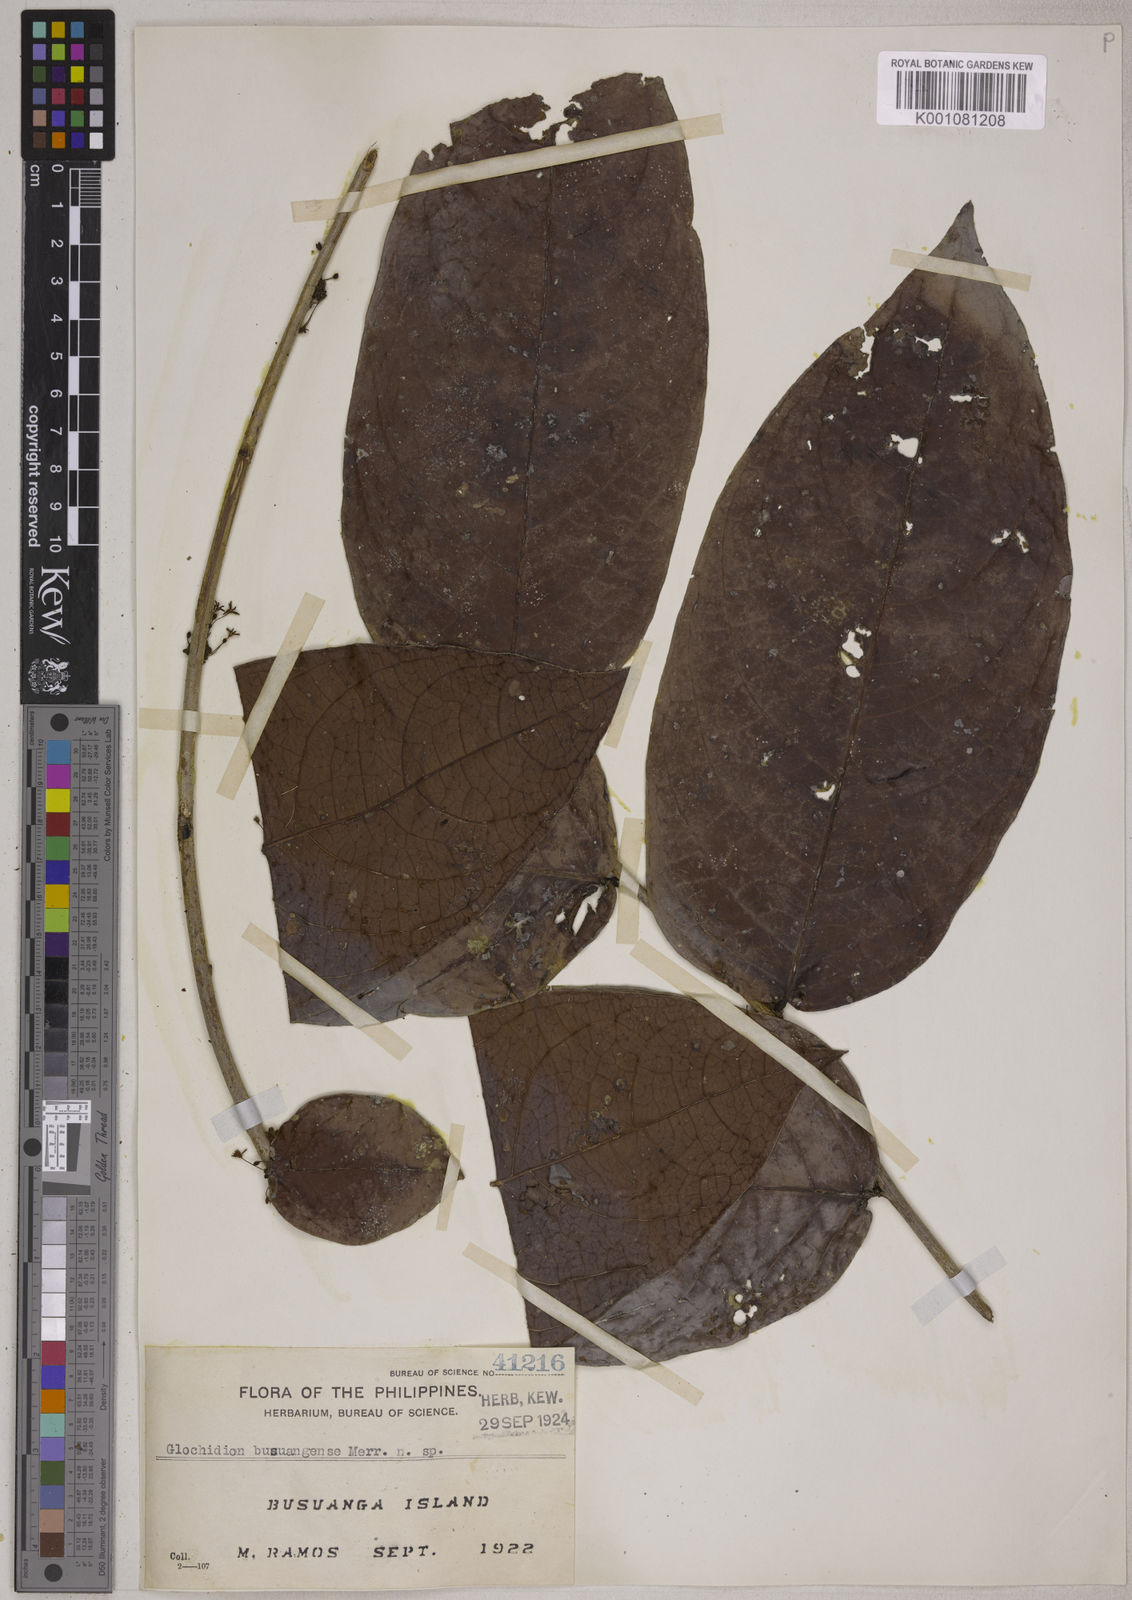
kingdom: Plantae
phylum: Tracheophyta
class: Magnoliopsida
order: Malpighiales
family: Phyllanthaceae
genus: Glochidion
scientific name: Glochidion
